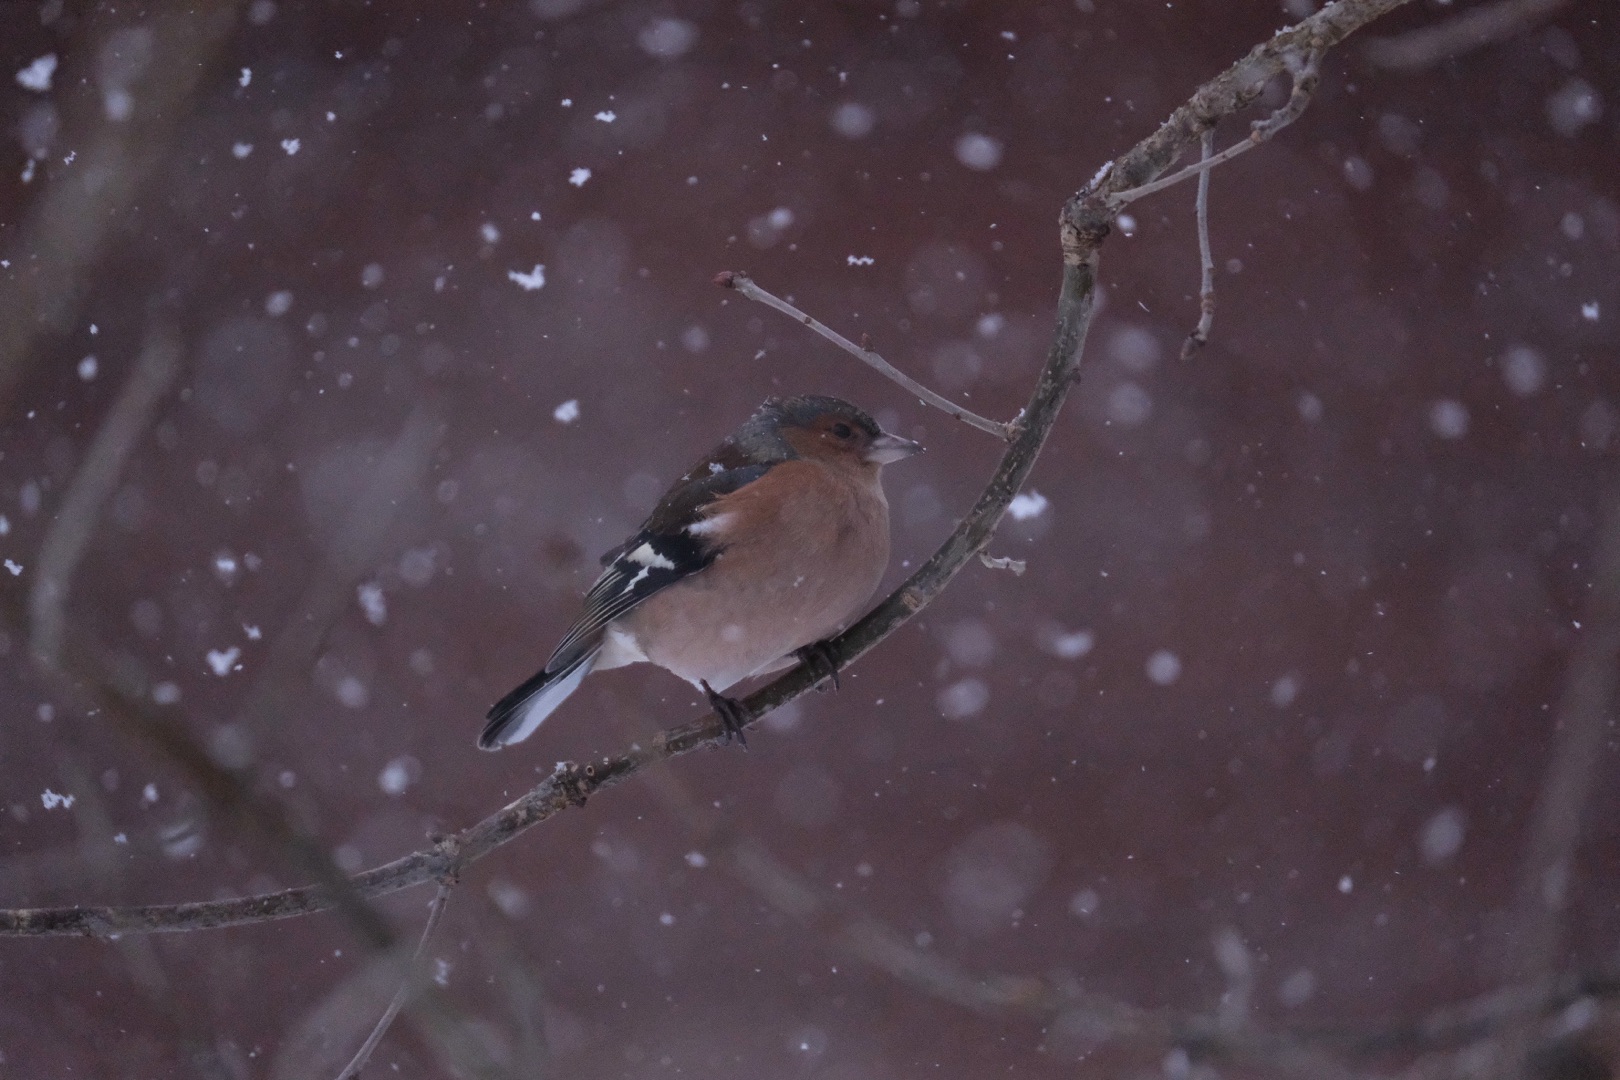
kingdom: Animalia
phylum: Chordata
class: Aves
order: Passeriformes
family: Fringillidae
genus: Fringilla
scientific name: Fringilla coelebs
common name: Bogfinke
